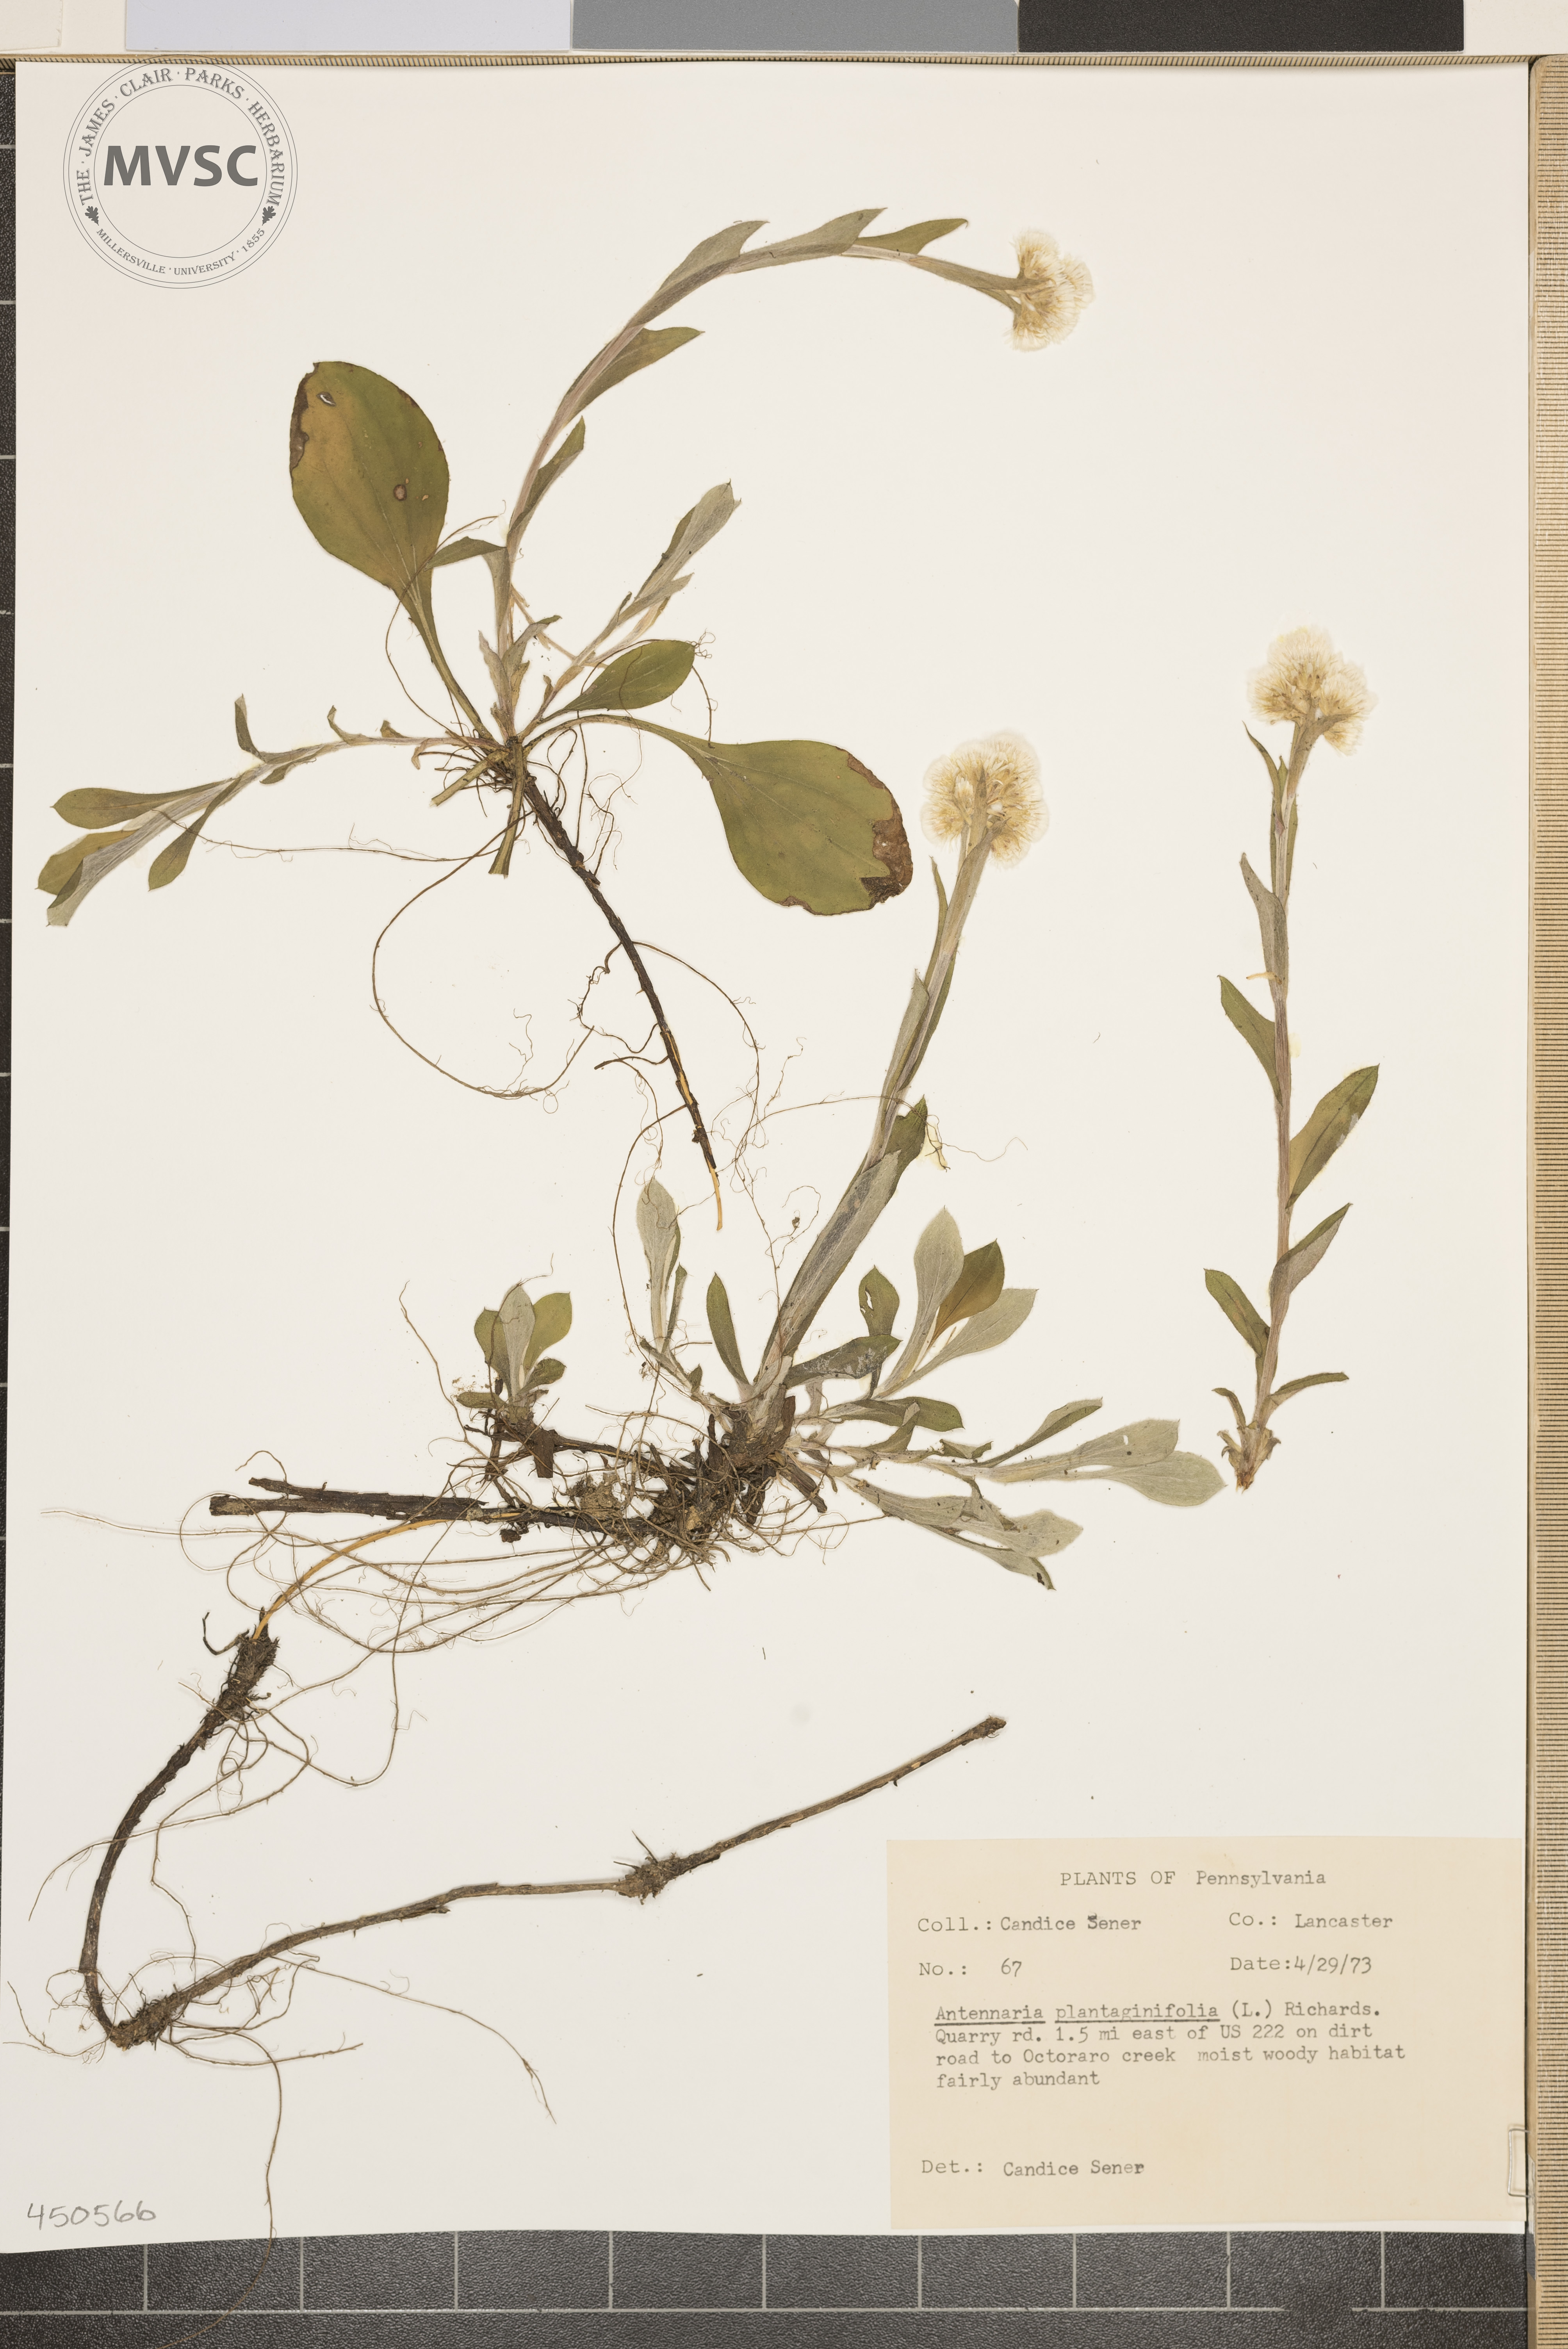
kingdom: Plantae
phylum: Tracheophyta
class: Magnoliopsida
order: Asterales
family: Asteraceae
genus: Antennaria
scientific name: Antennaria plantaginifolia
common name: Plantain-leaved pussytoes
